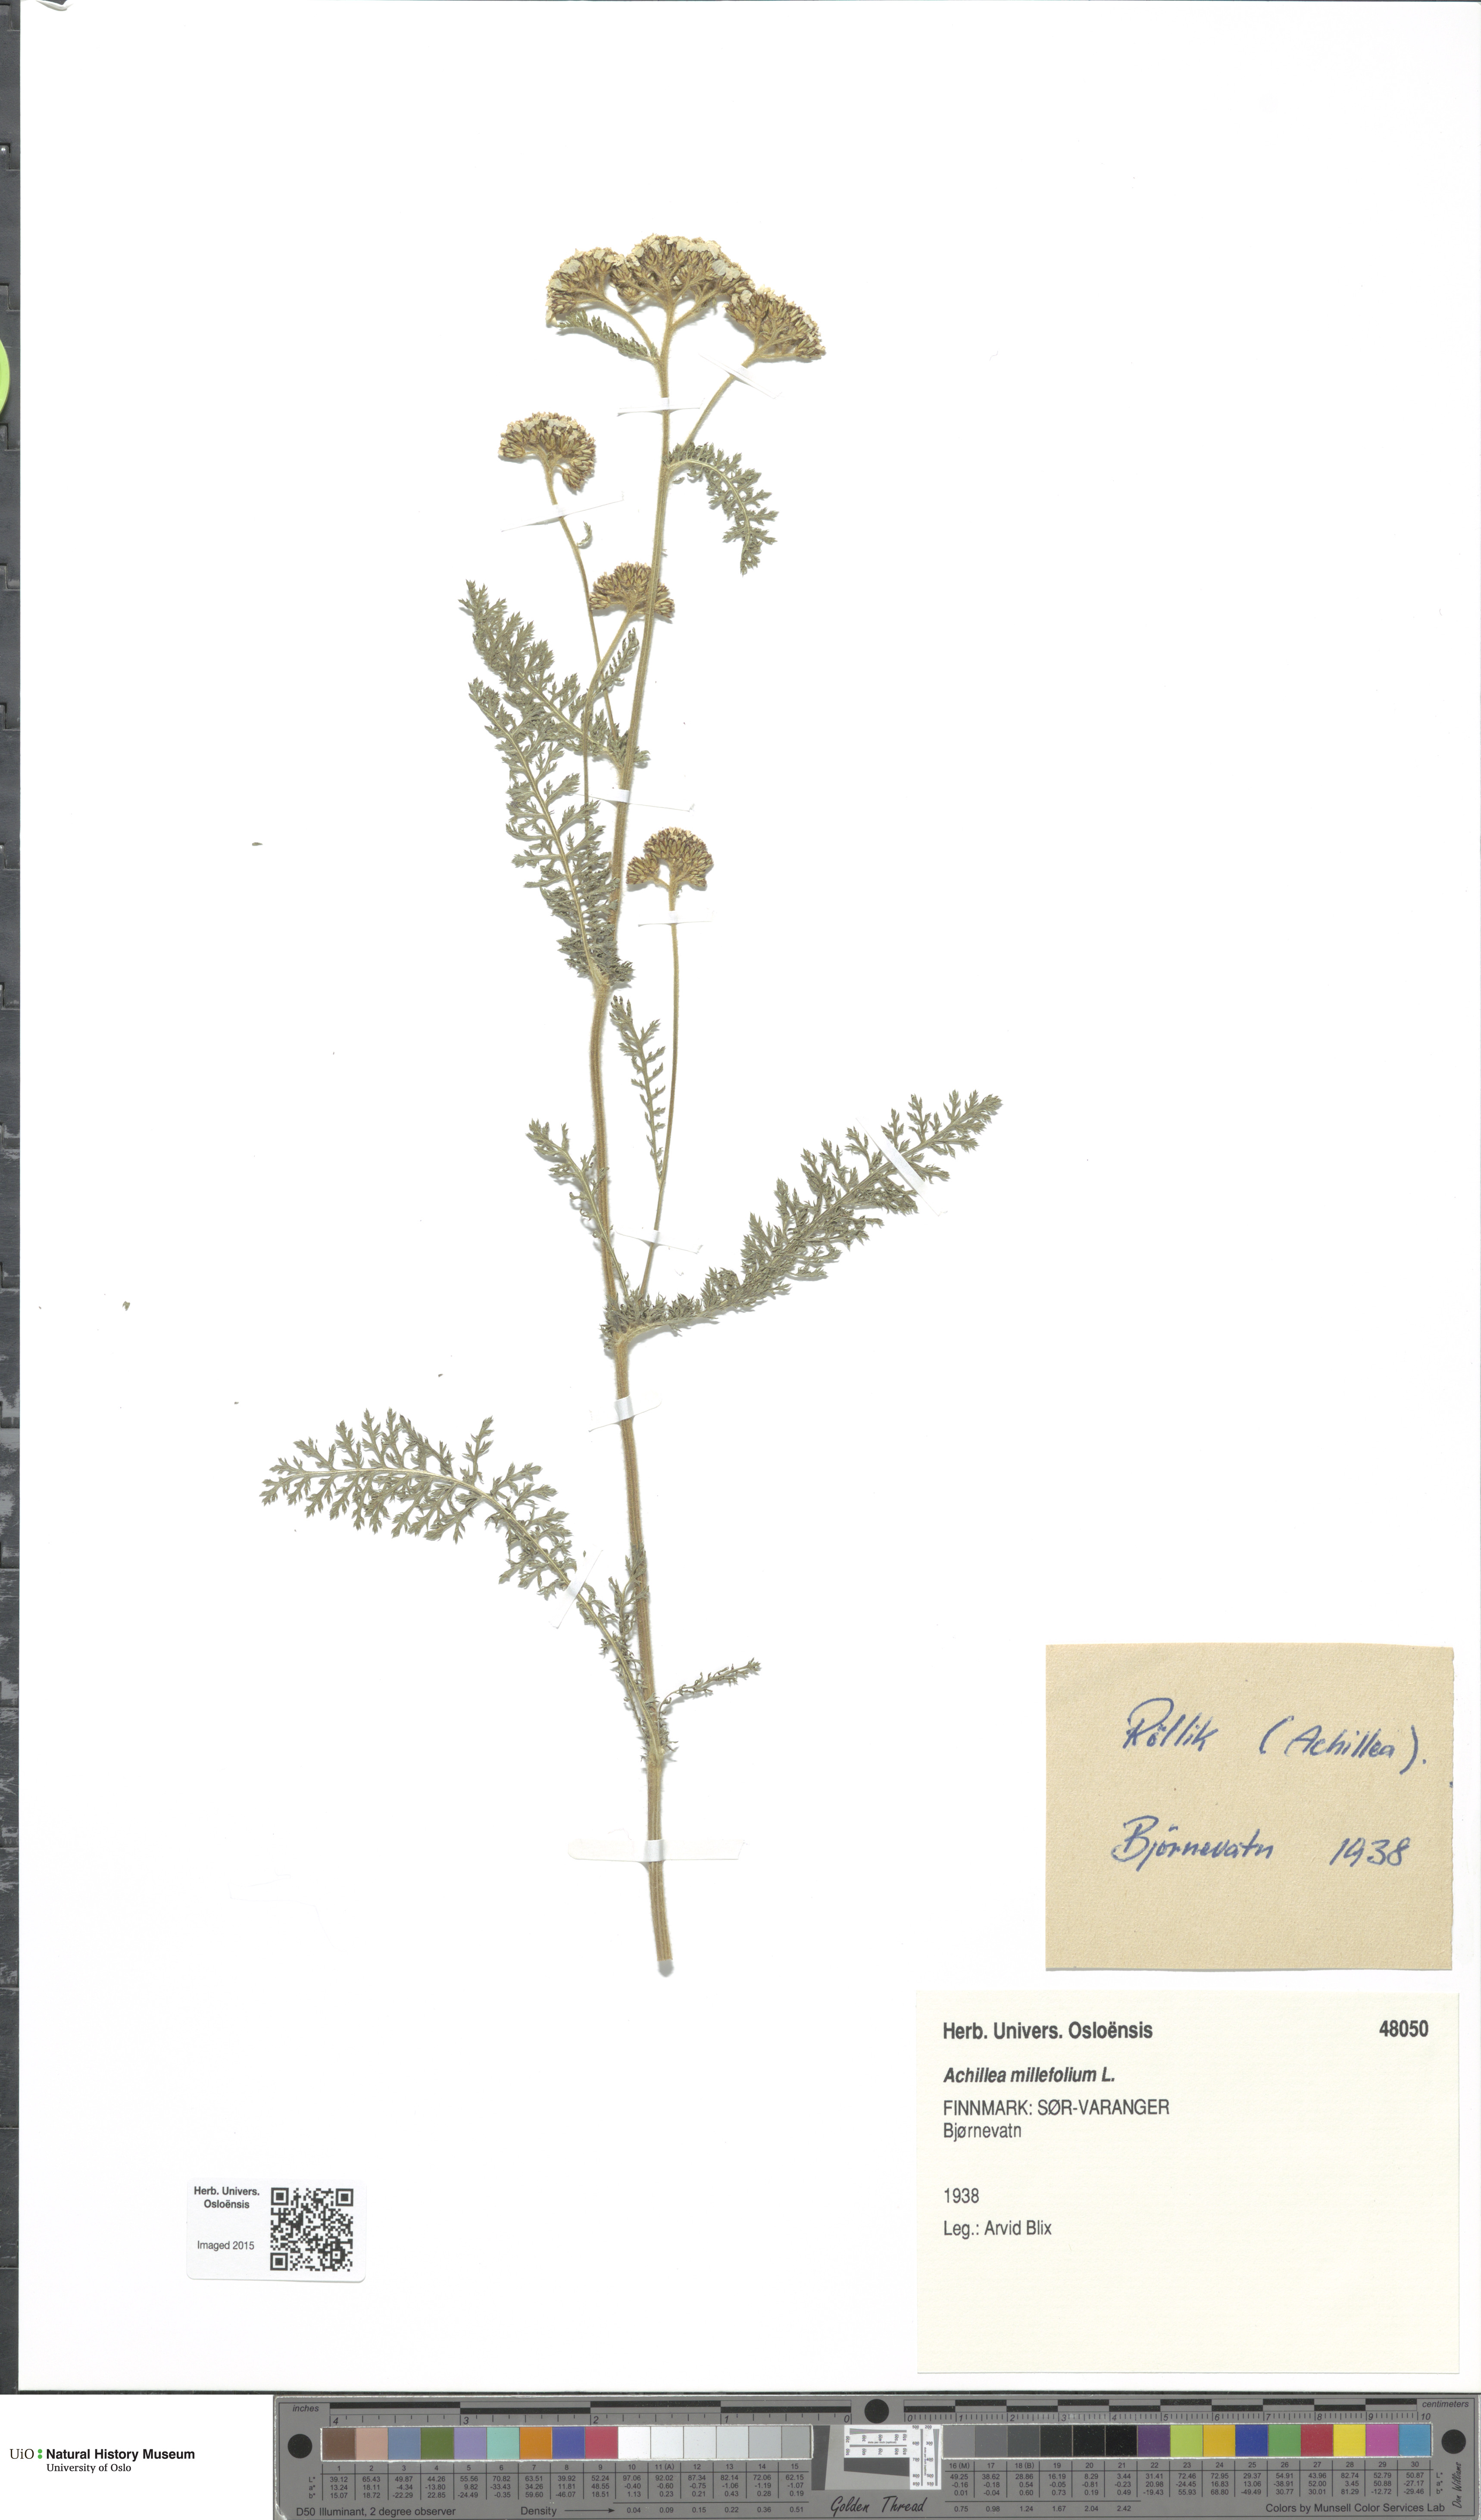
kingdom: Plantae
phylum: Tracheophyta
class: Magnoliopsida
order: Asterales
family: Asteraceae
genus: Achillea
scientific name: Achillea millefolium
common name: Yarrow
